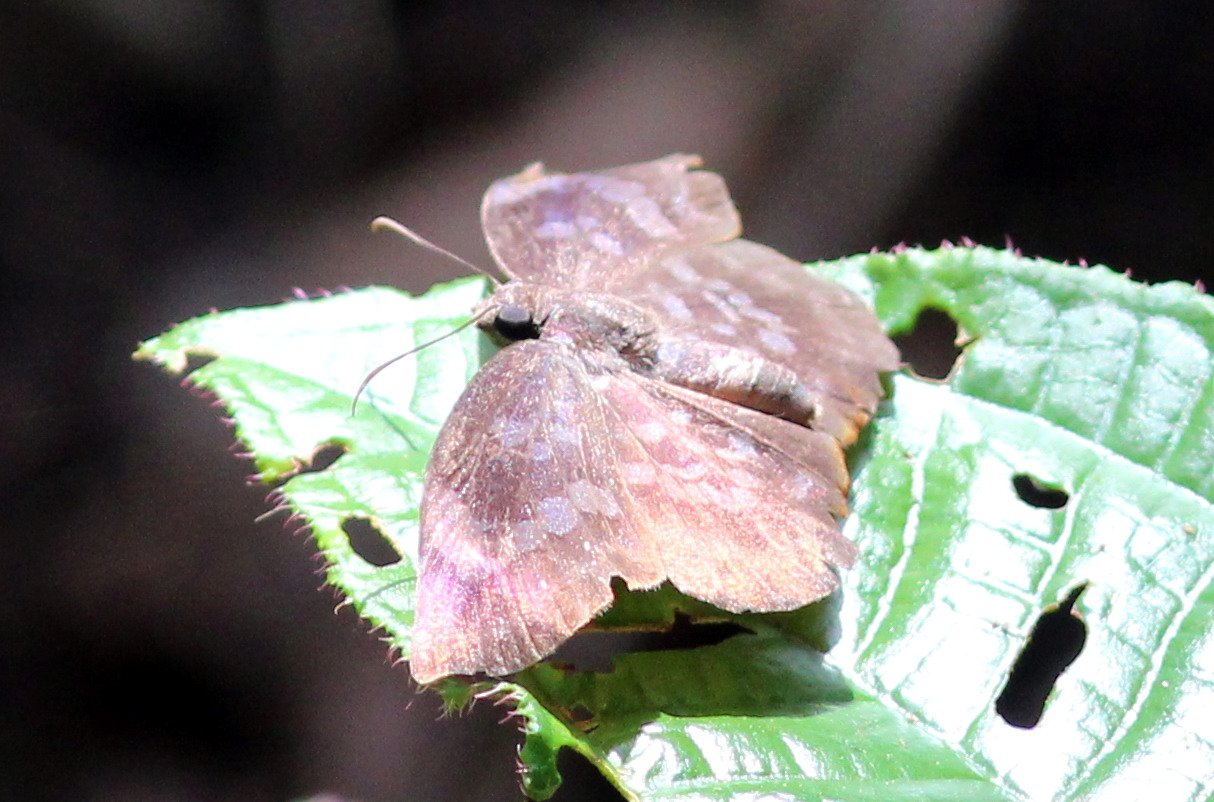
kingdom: Animalia
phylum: Arthropoda
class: Insecta
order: Lepidoptera
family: Hesperiidae
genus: Achlyodes
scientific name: Achlyodes thraso
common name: Southern Sicklewing
